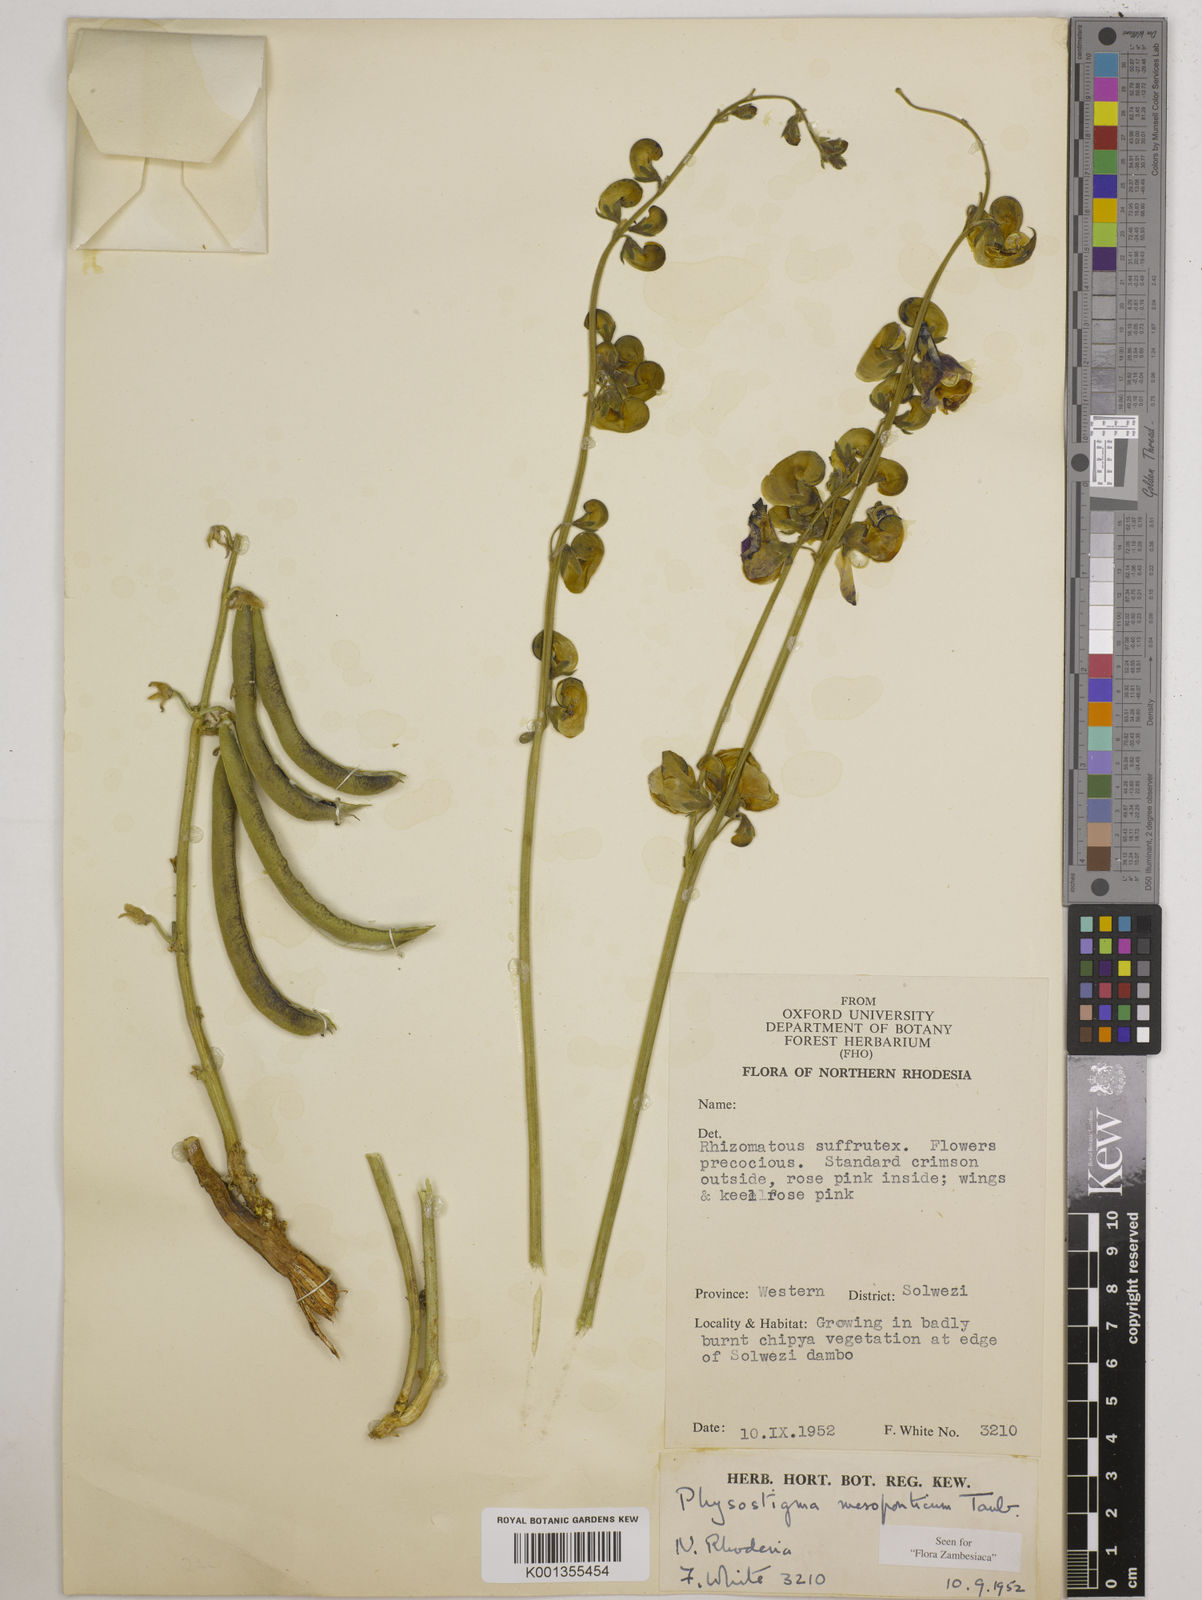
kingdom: Plantae
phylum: Tracheophyta
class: Magnoliopsida
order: Fabales
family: Fabaceae
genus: Physostigma
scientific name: Physostigma mesoponticum
